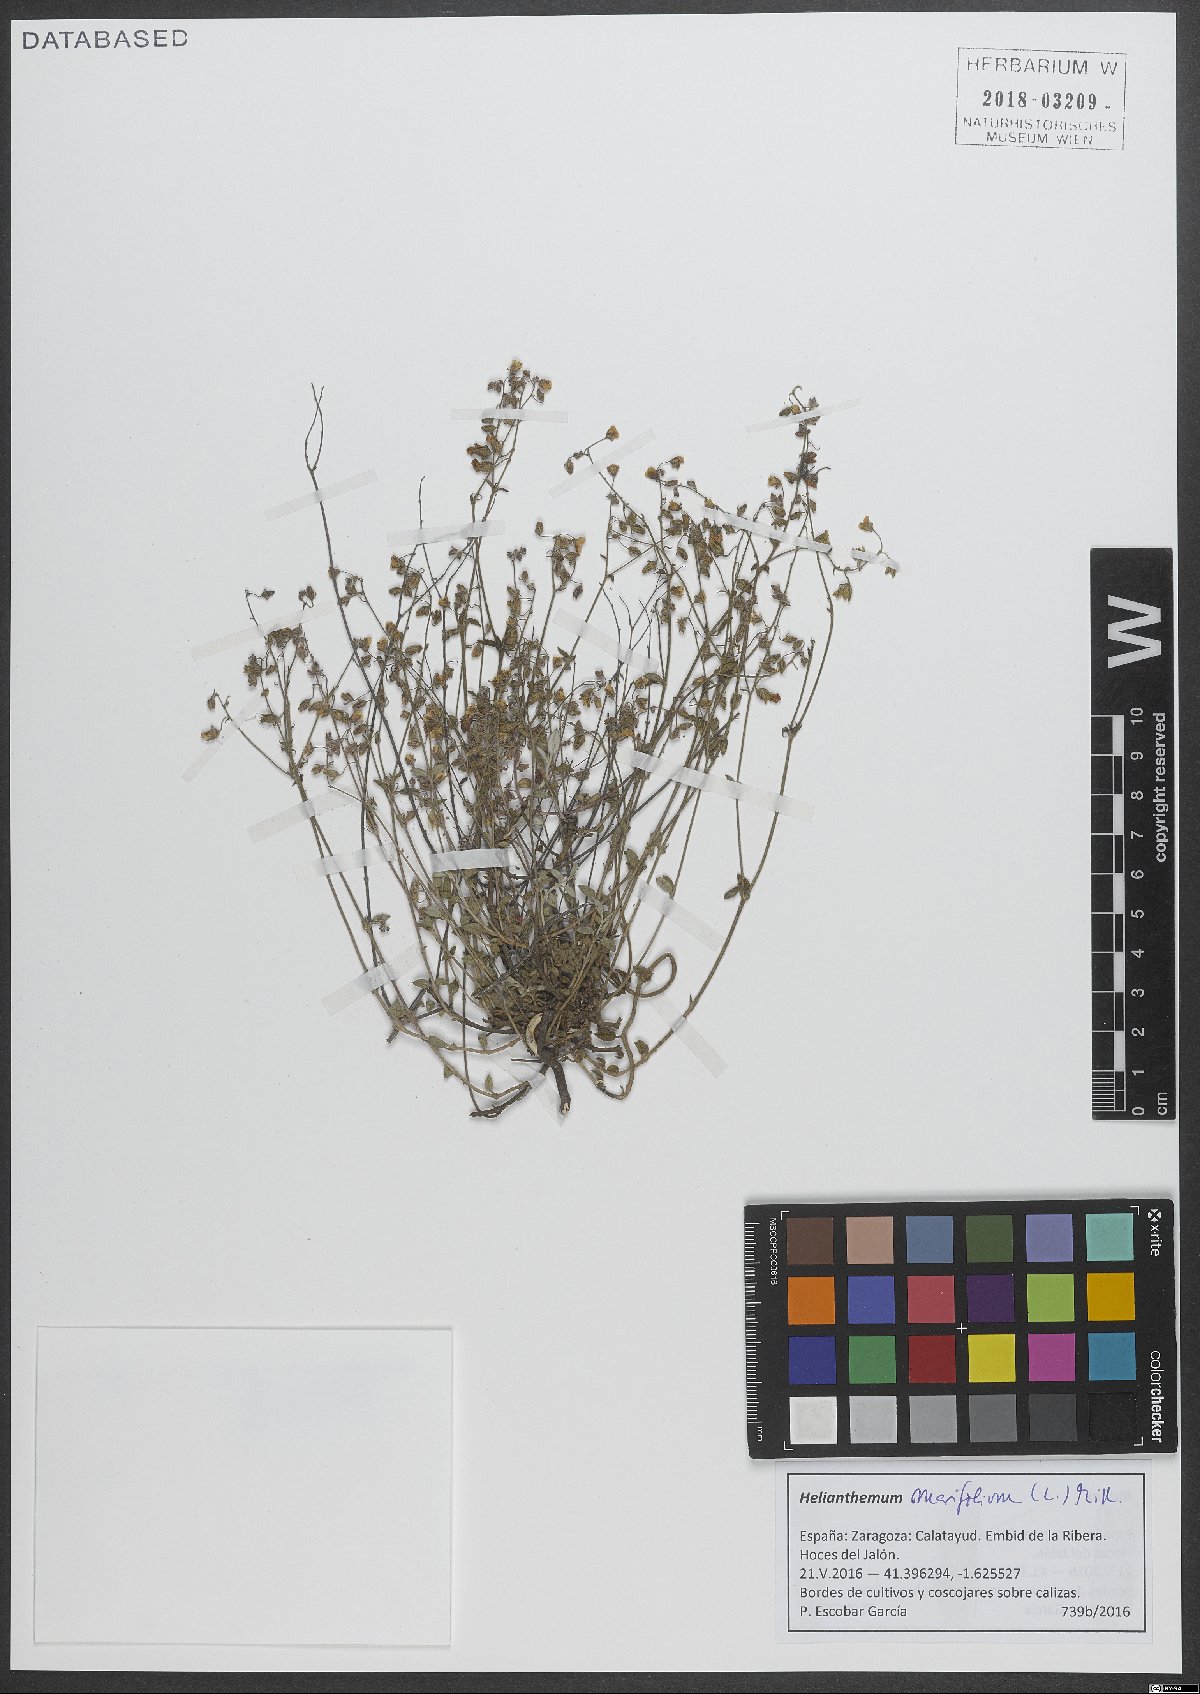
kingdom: Plantae
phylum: Tracheophyta
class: Magnoliopsida
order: Malvales
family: Cistaceae
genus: Helianthemum
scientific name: Helianthemum marifolium
